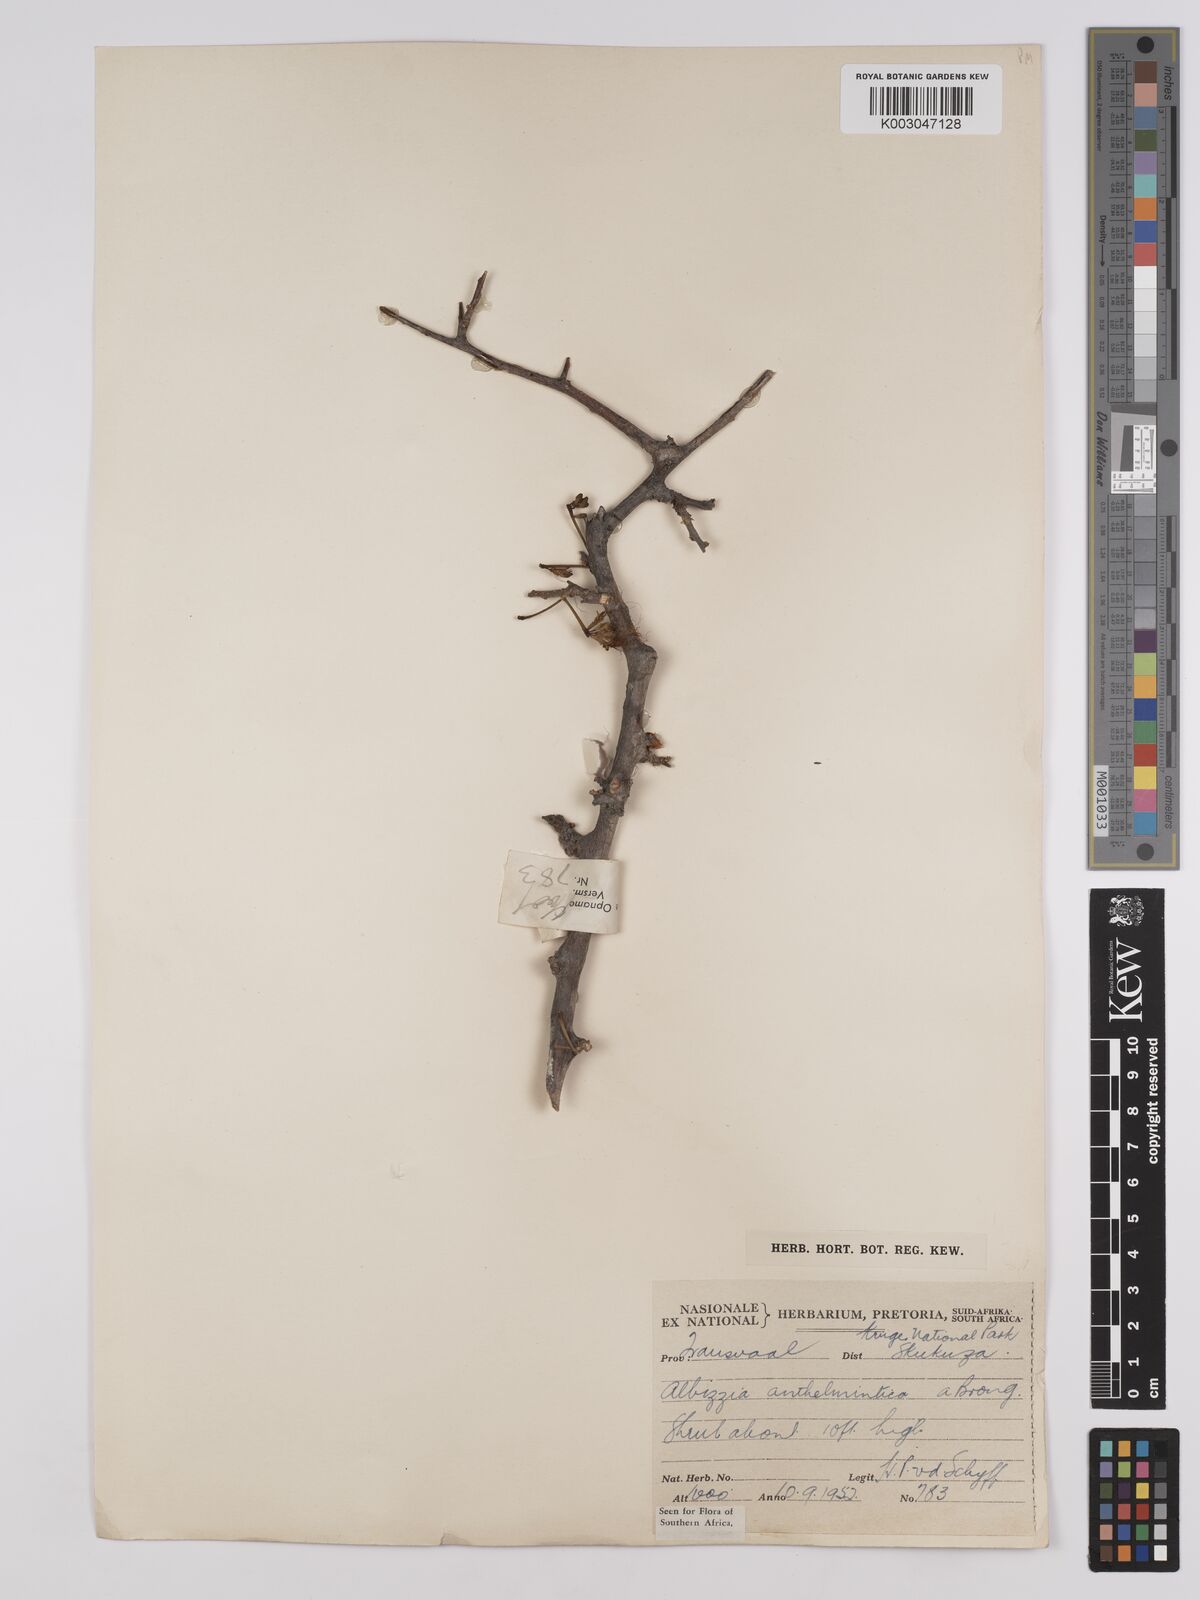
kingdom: Plantae
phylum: Tracheophyta
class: Magnoliopsida
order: Fabales
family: Fabaceae
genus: Albizia
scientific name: Albizia anthelmintica
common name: Worm-bark false-thorn
